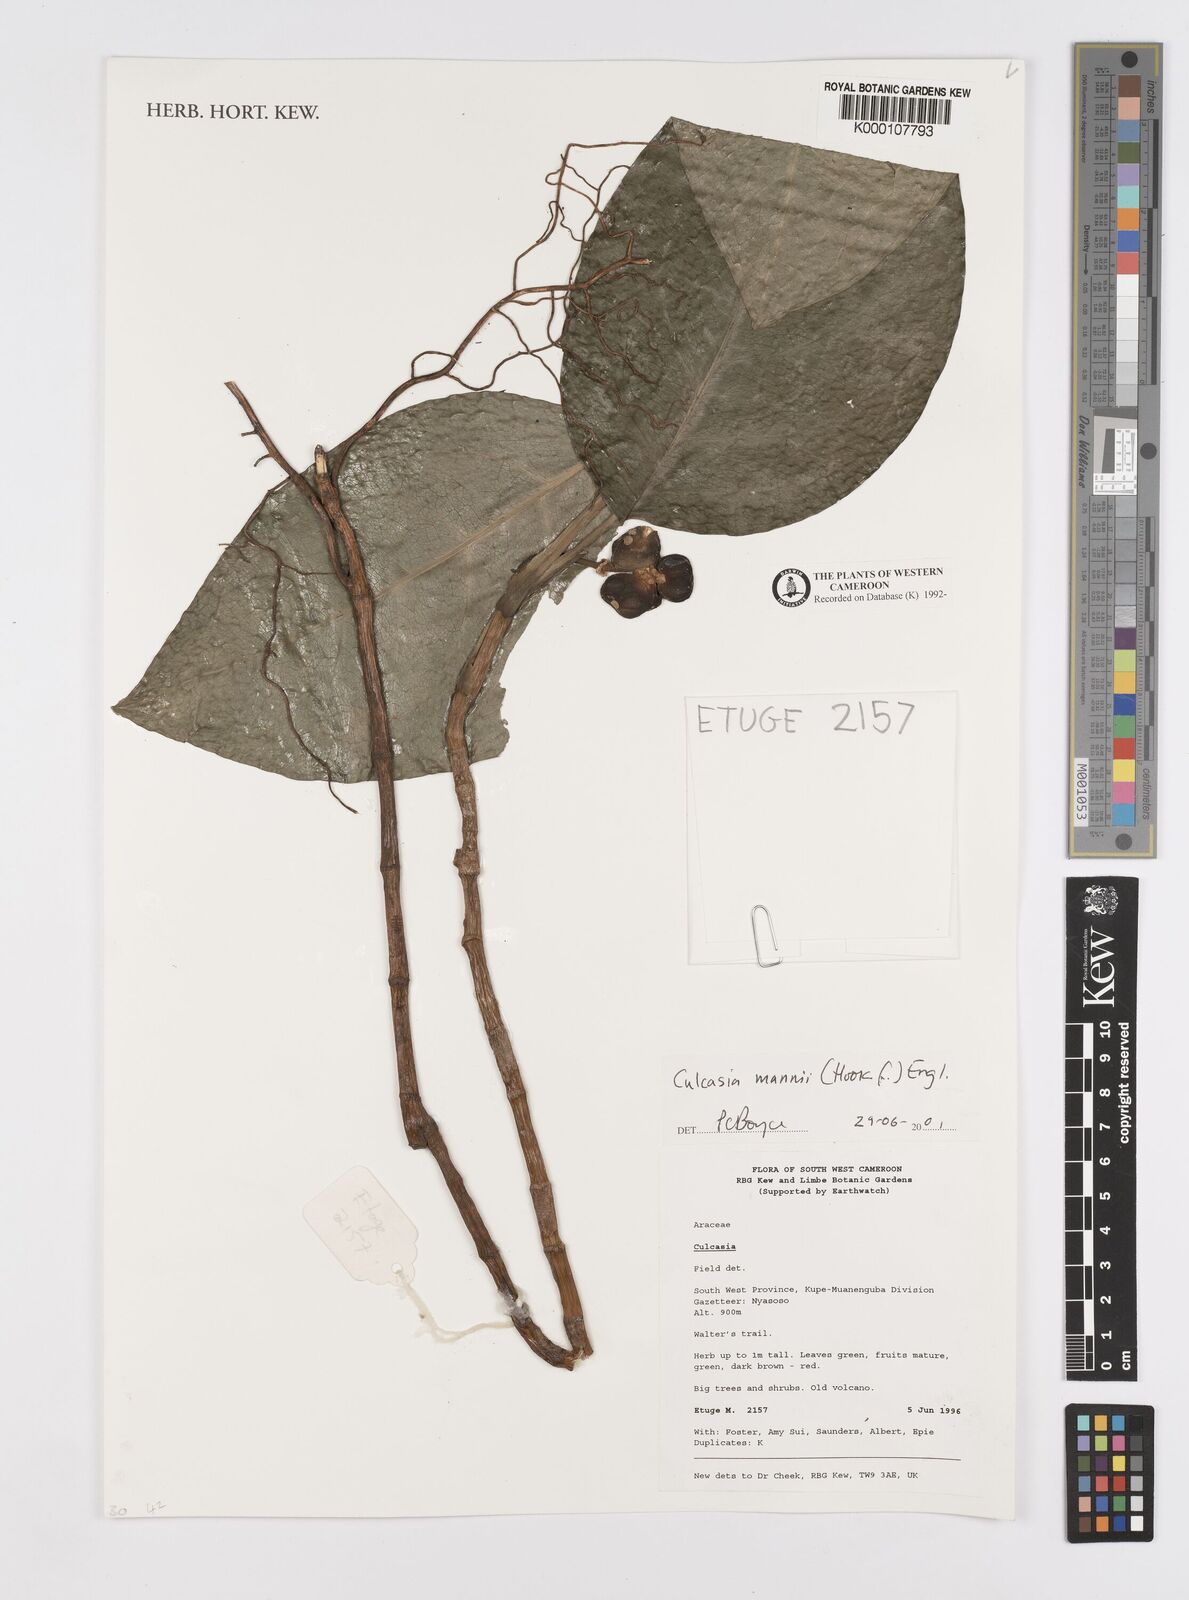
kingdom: Plantae
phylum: Tracheophyta
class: Liliopsida
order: Alismatales
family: Araceae
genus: Culcasia
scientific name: Culcasia mannii
